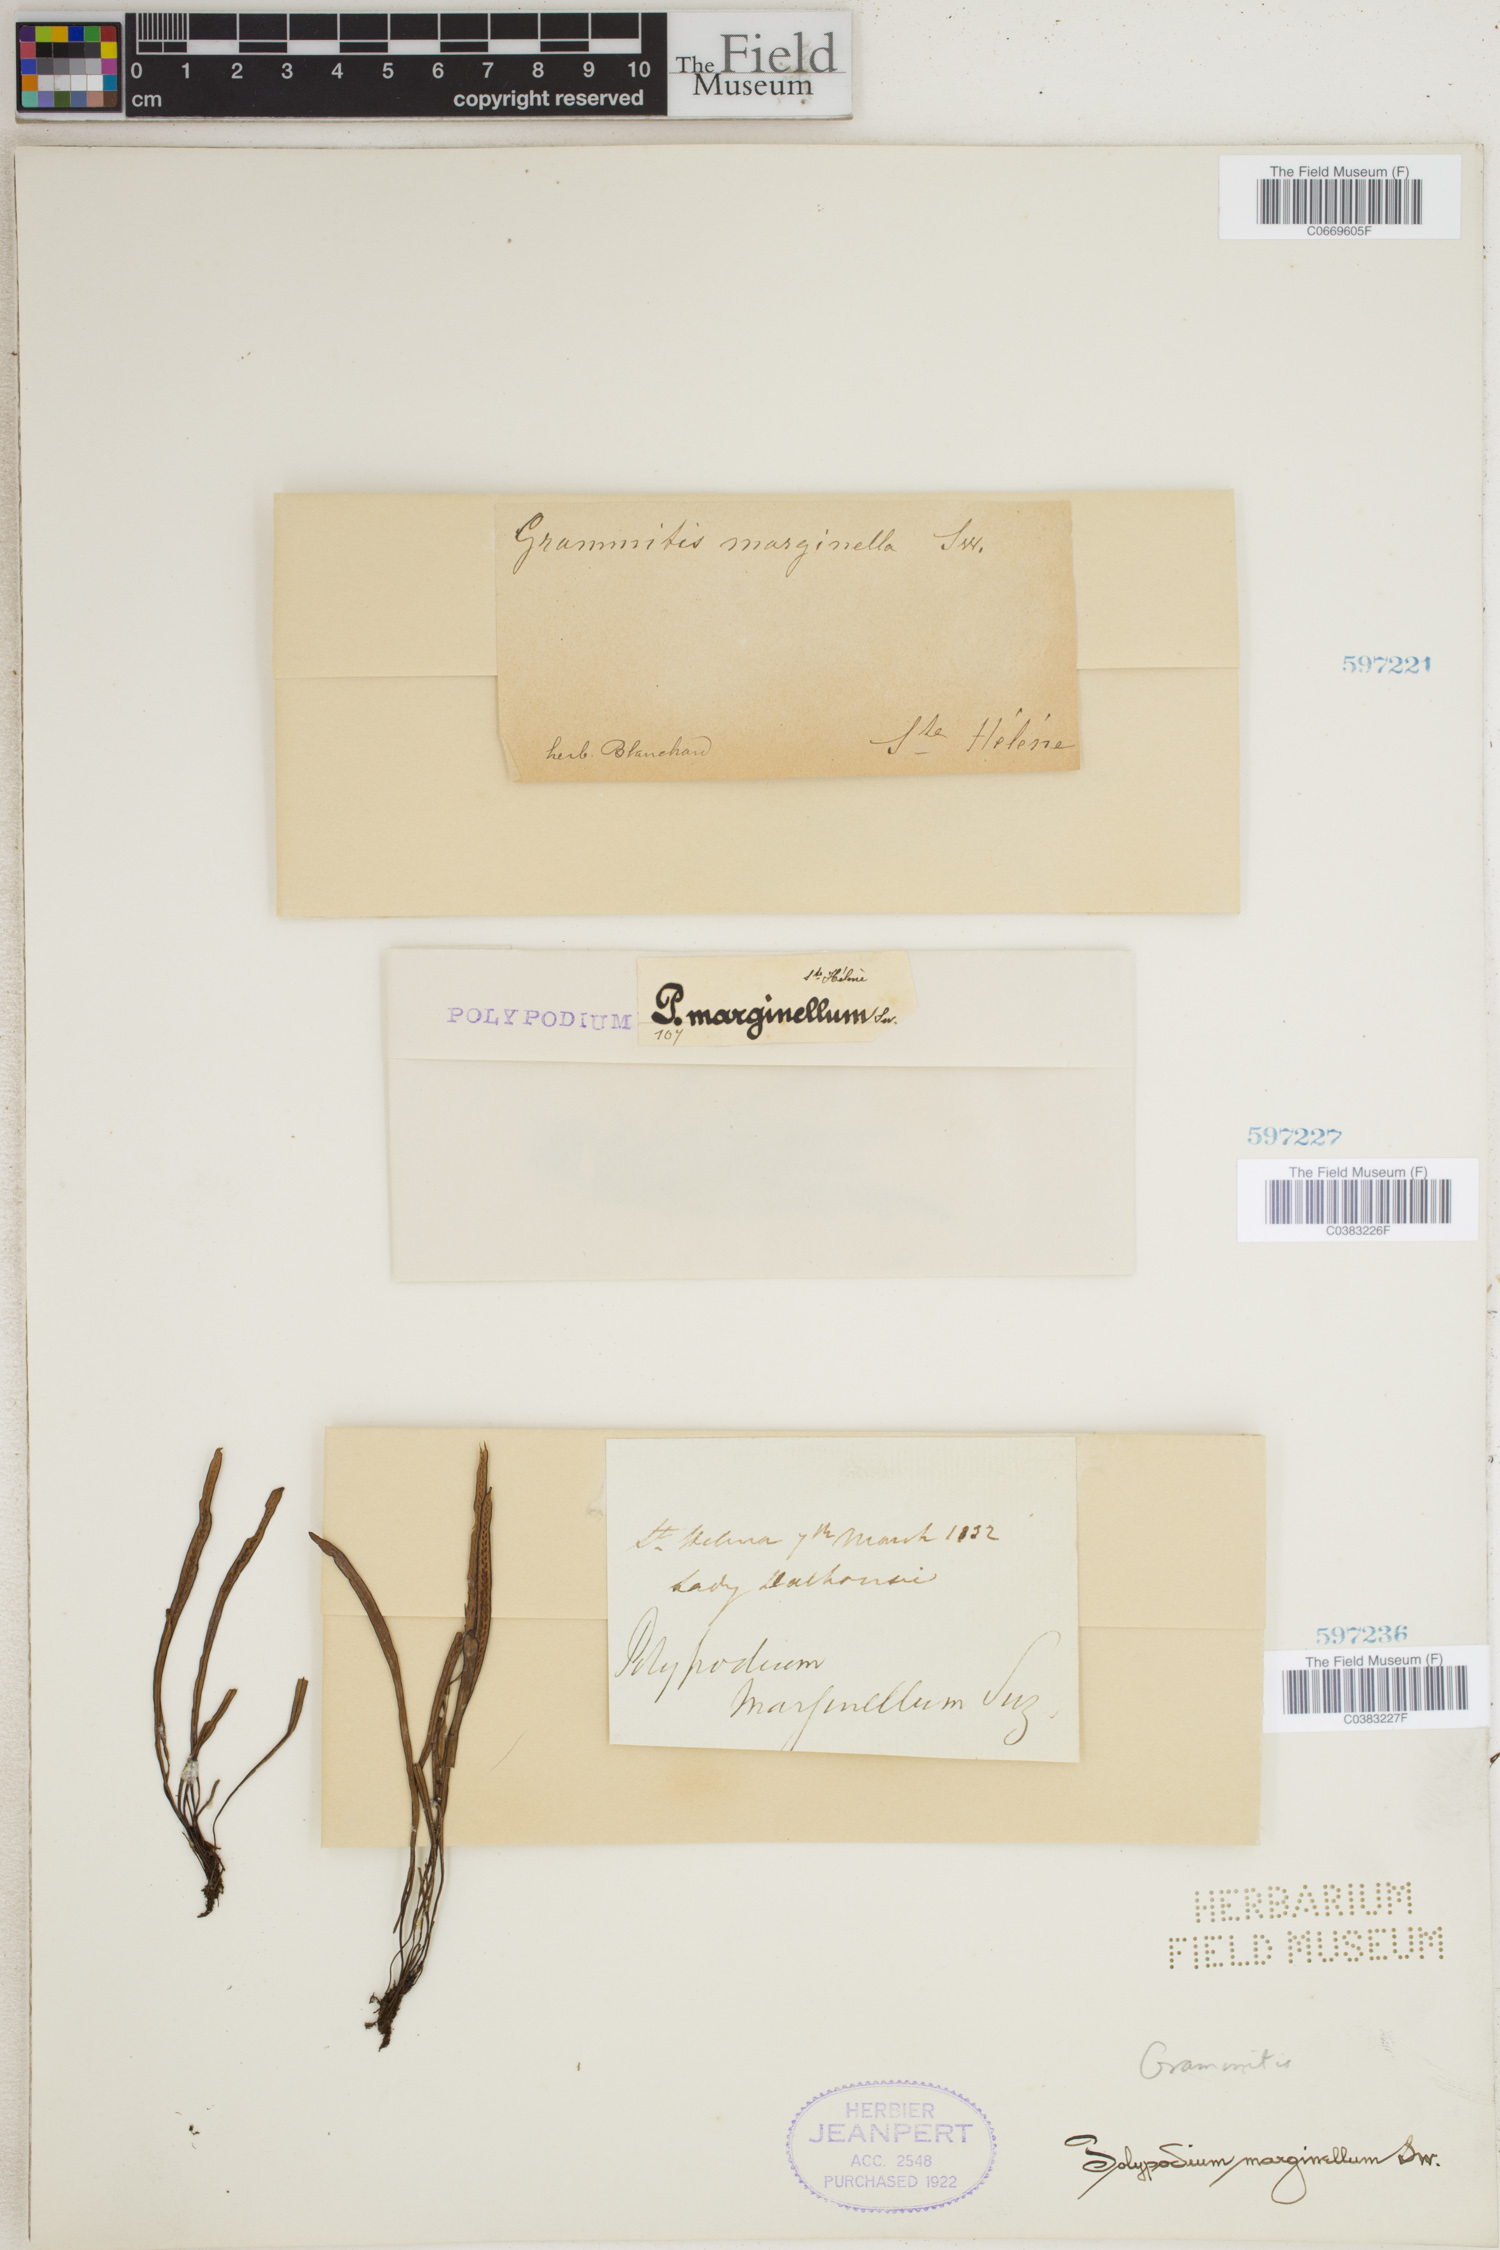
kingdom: Plantae
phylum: Tracheophyta
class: Polypodiopsida
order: Polypodiales
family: Polypodiaceae
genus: Grammitis
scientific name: Grammitis marginella
